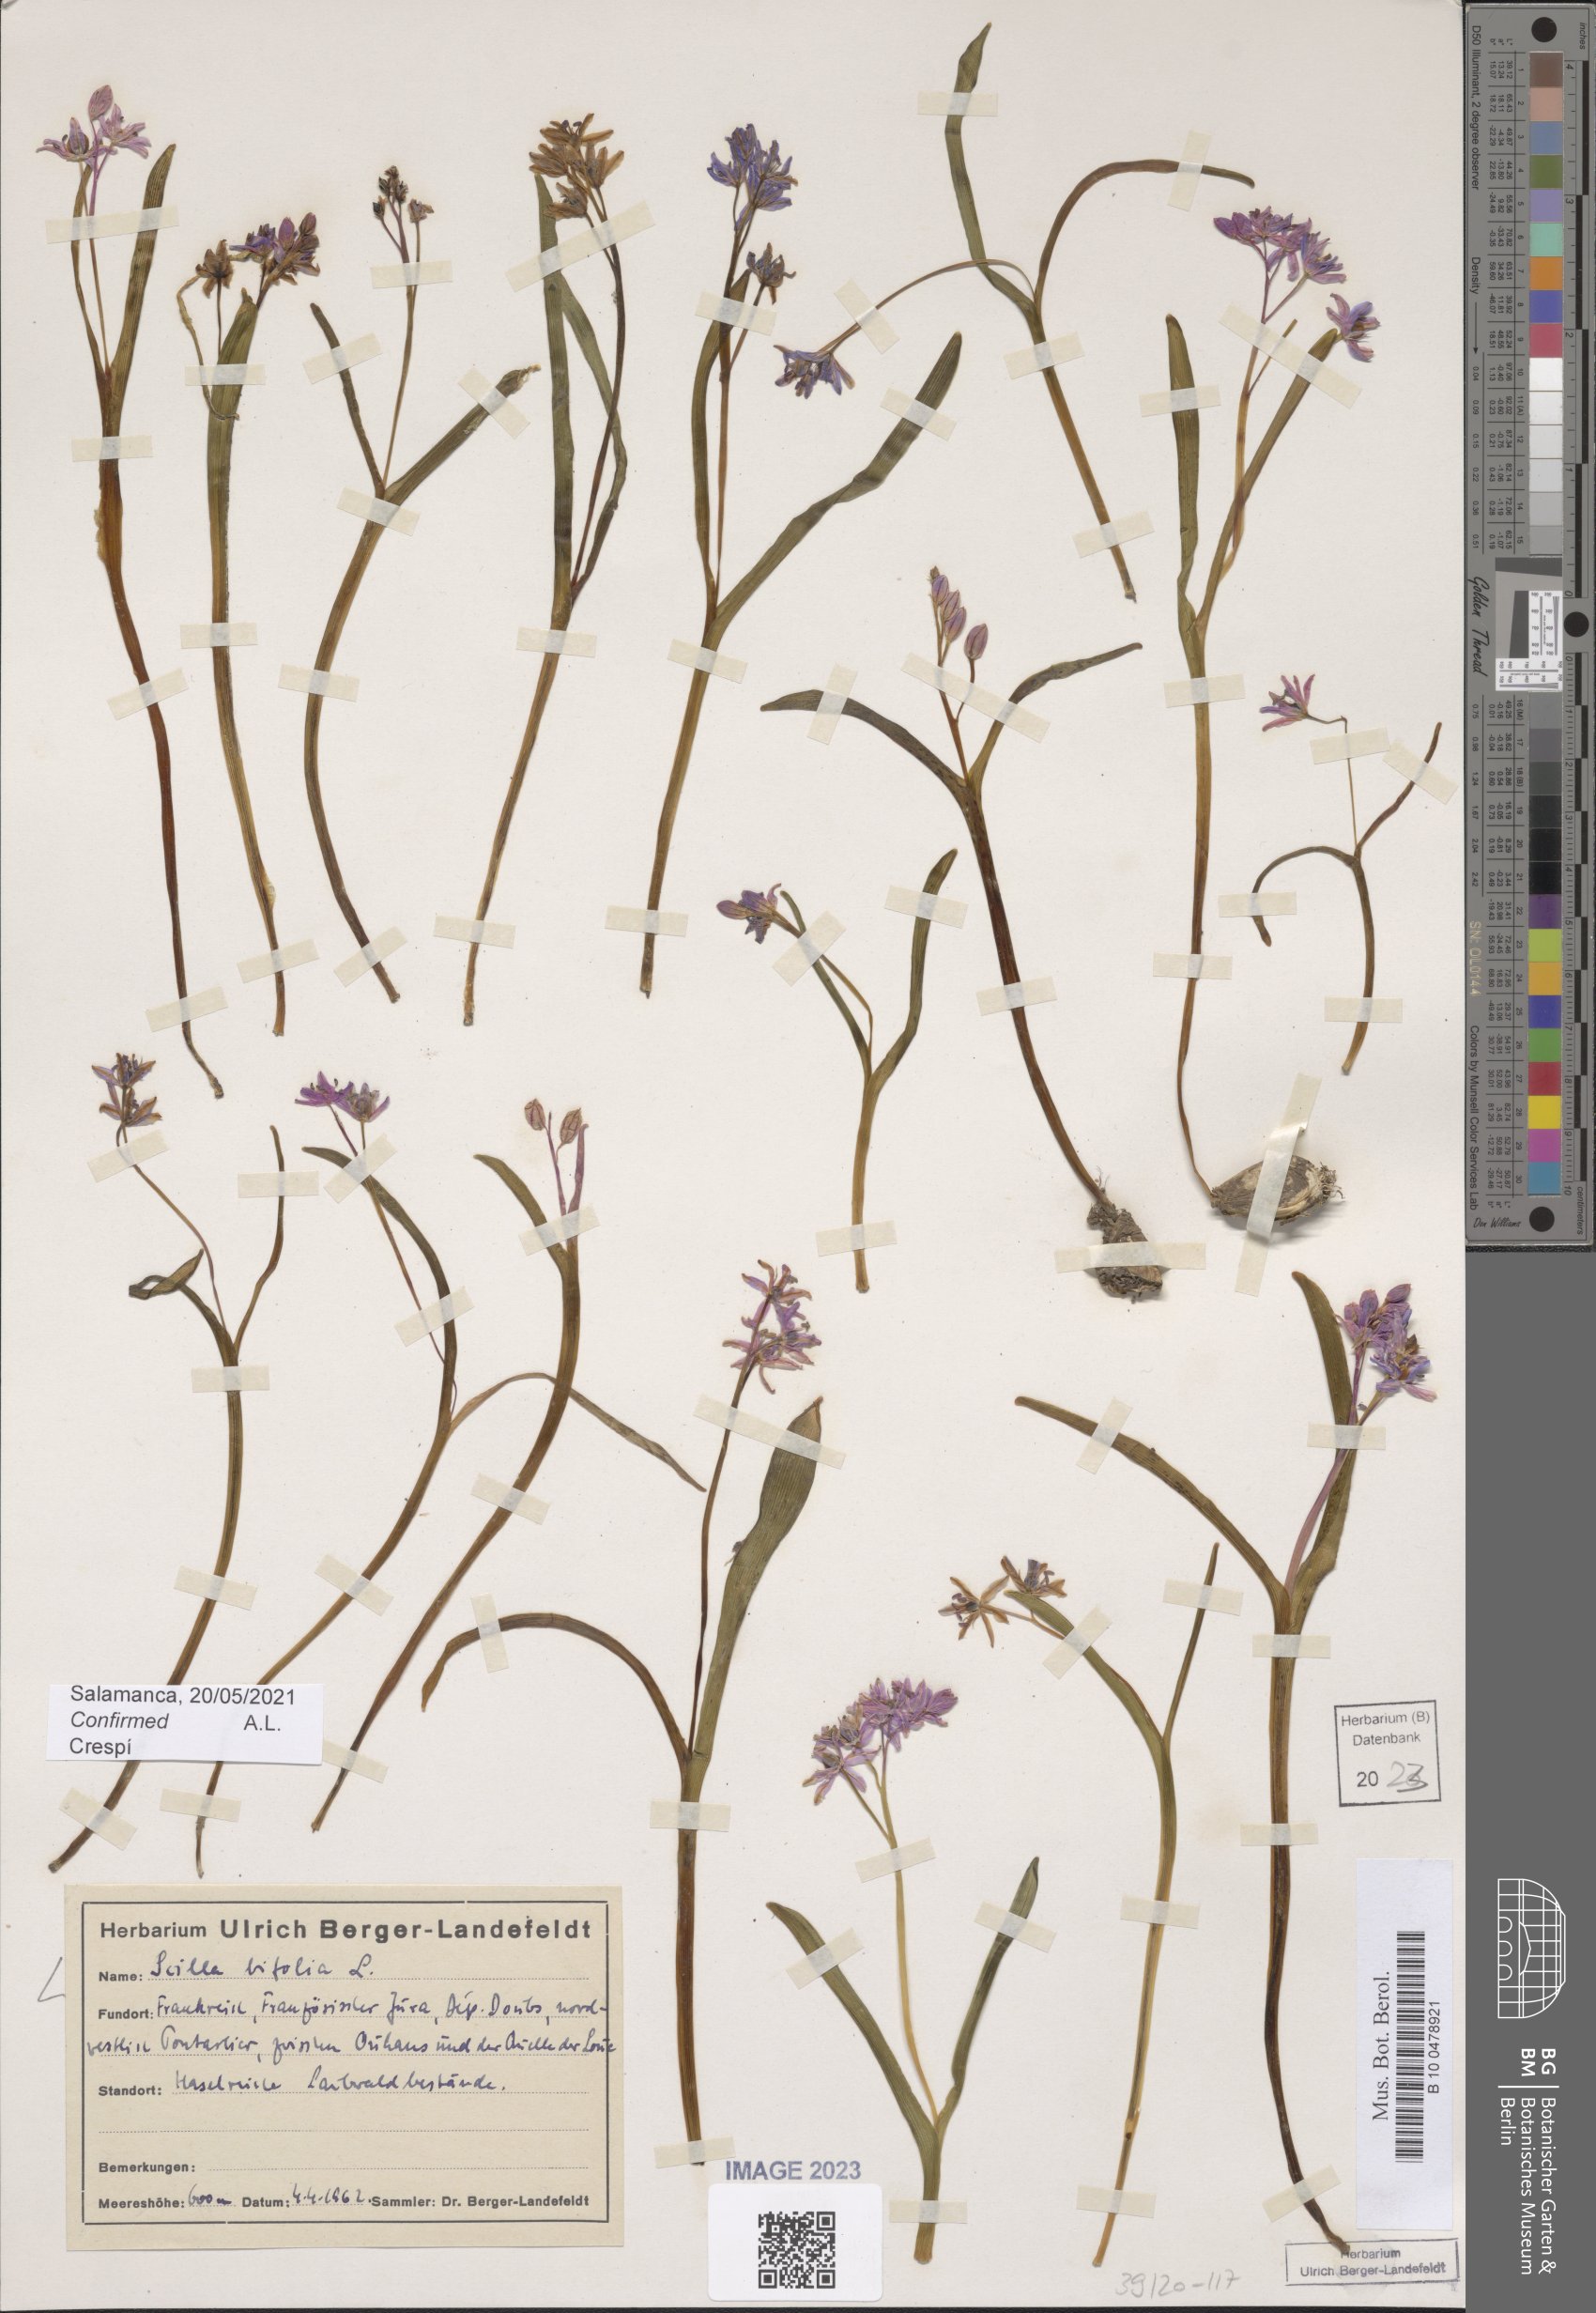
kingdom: Plantae
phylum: Tracheophyta
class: Liliopsida
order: Asparagales
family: Asparagaceae
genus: Scilla
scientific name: Scilla bifolia
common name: Alpine squill
